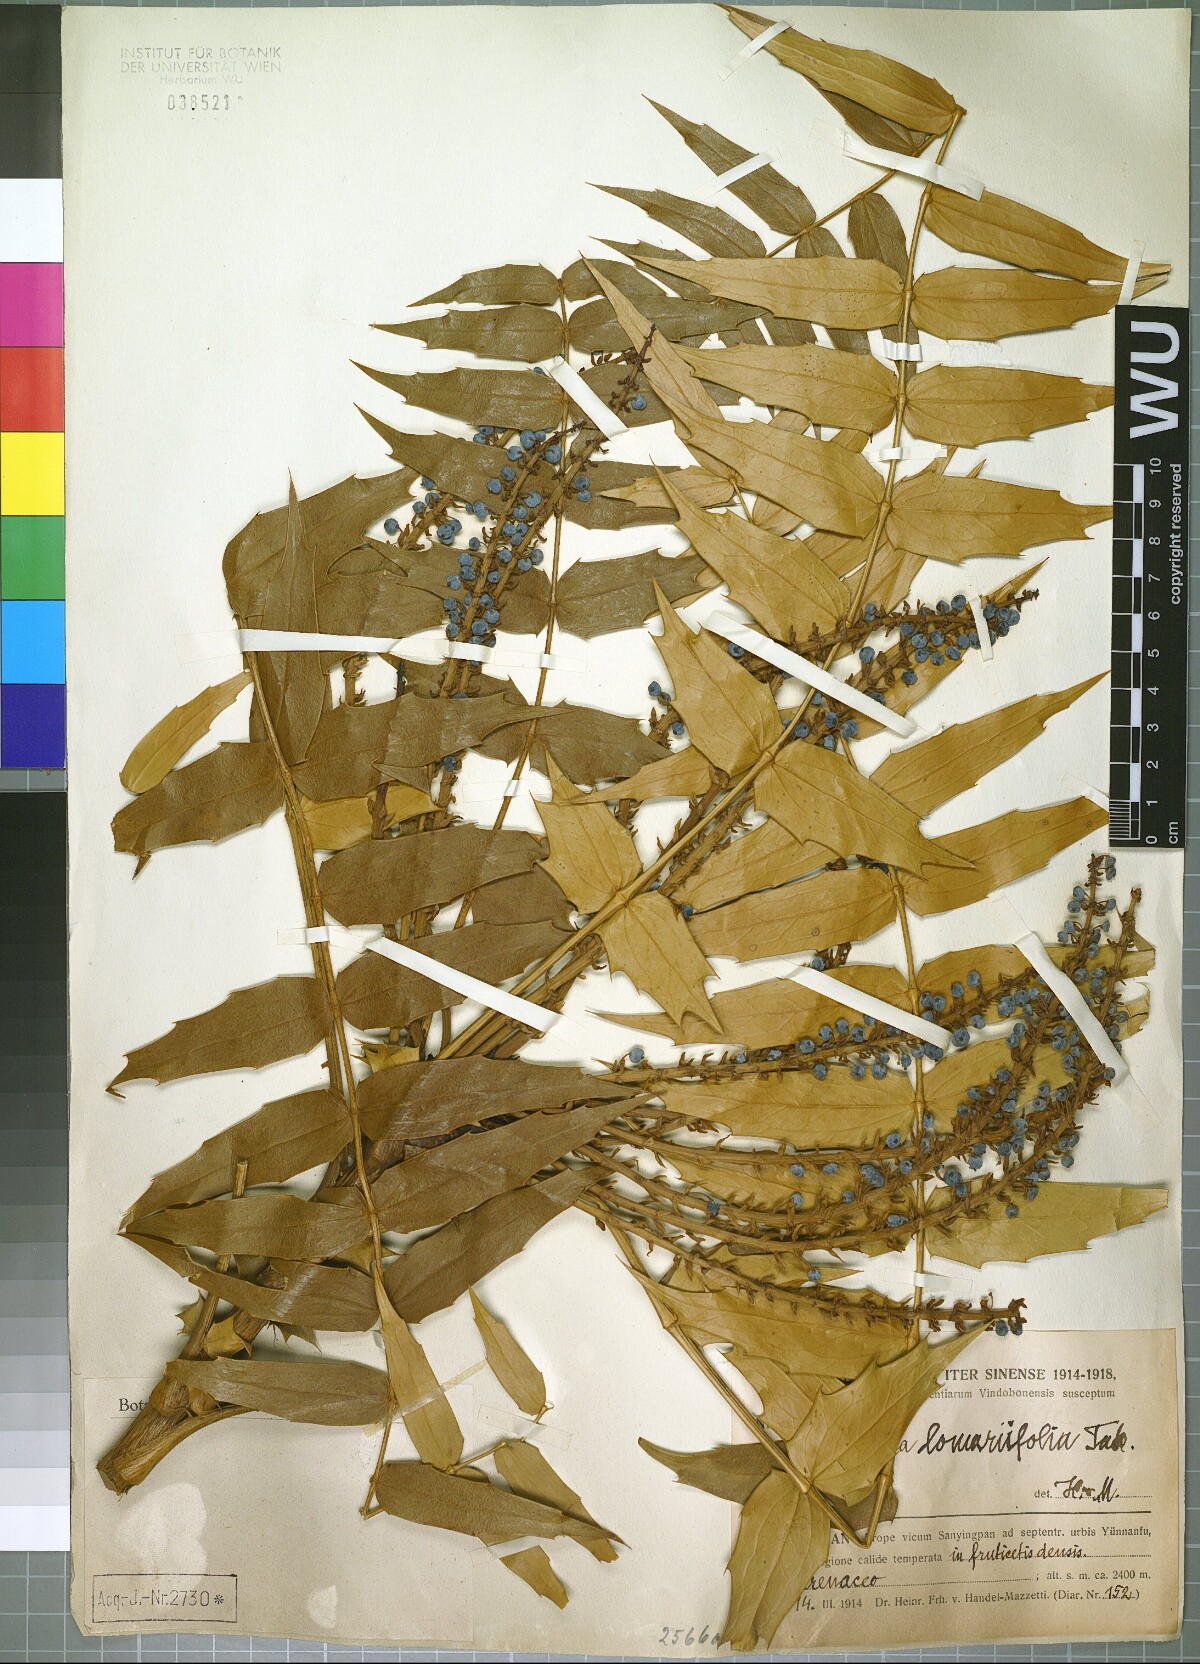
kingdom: Plantae
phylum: Tracheophyta
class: Magnoliopsida
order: Ranunculales
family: Berberidaceae
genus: Mahonia
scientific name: Mahonia oiwakensis
